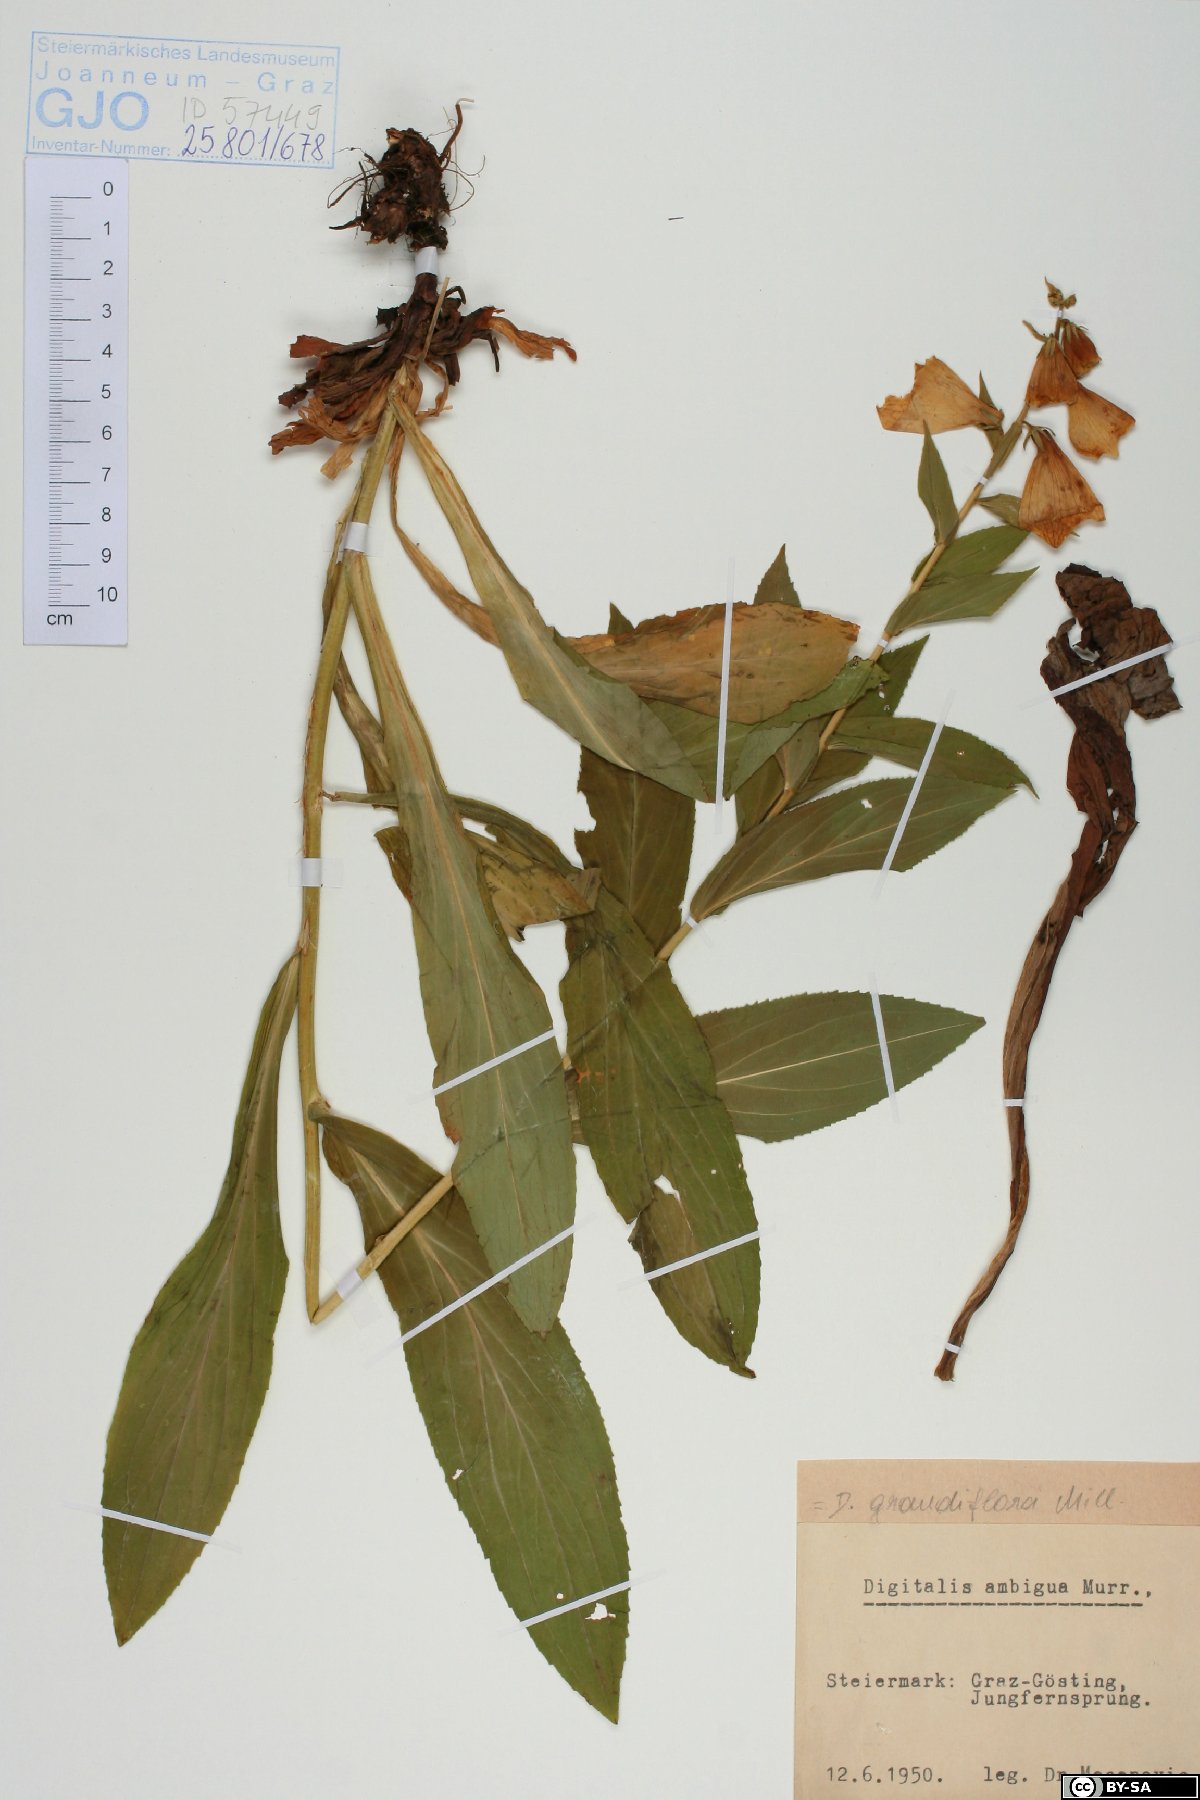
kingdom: Plantae
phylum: Tracheophyta
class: Magnoliopsida
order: Lamiales
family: Plantaginaceae
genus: Digitalis
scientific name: Digitalis grandiflora
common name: Yellow foxglove
